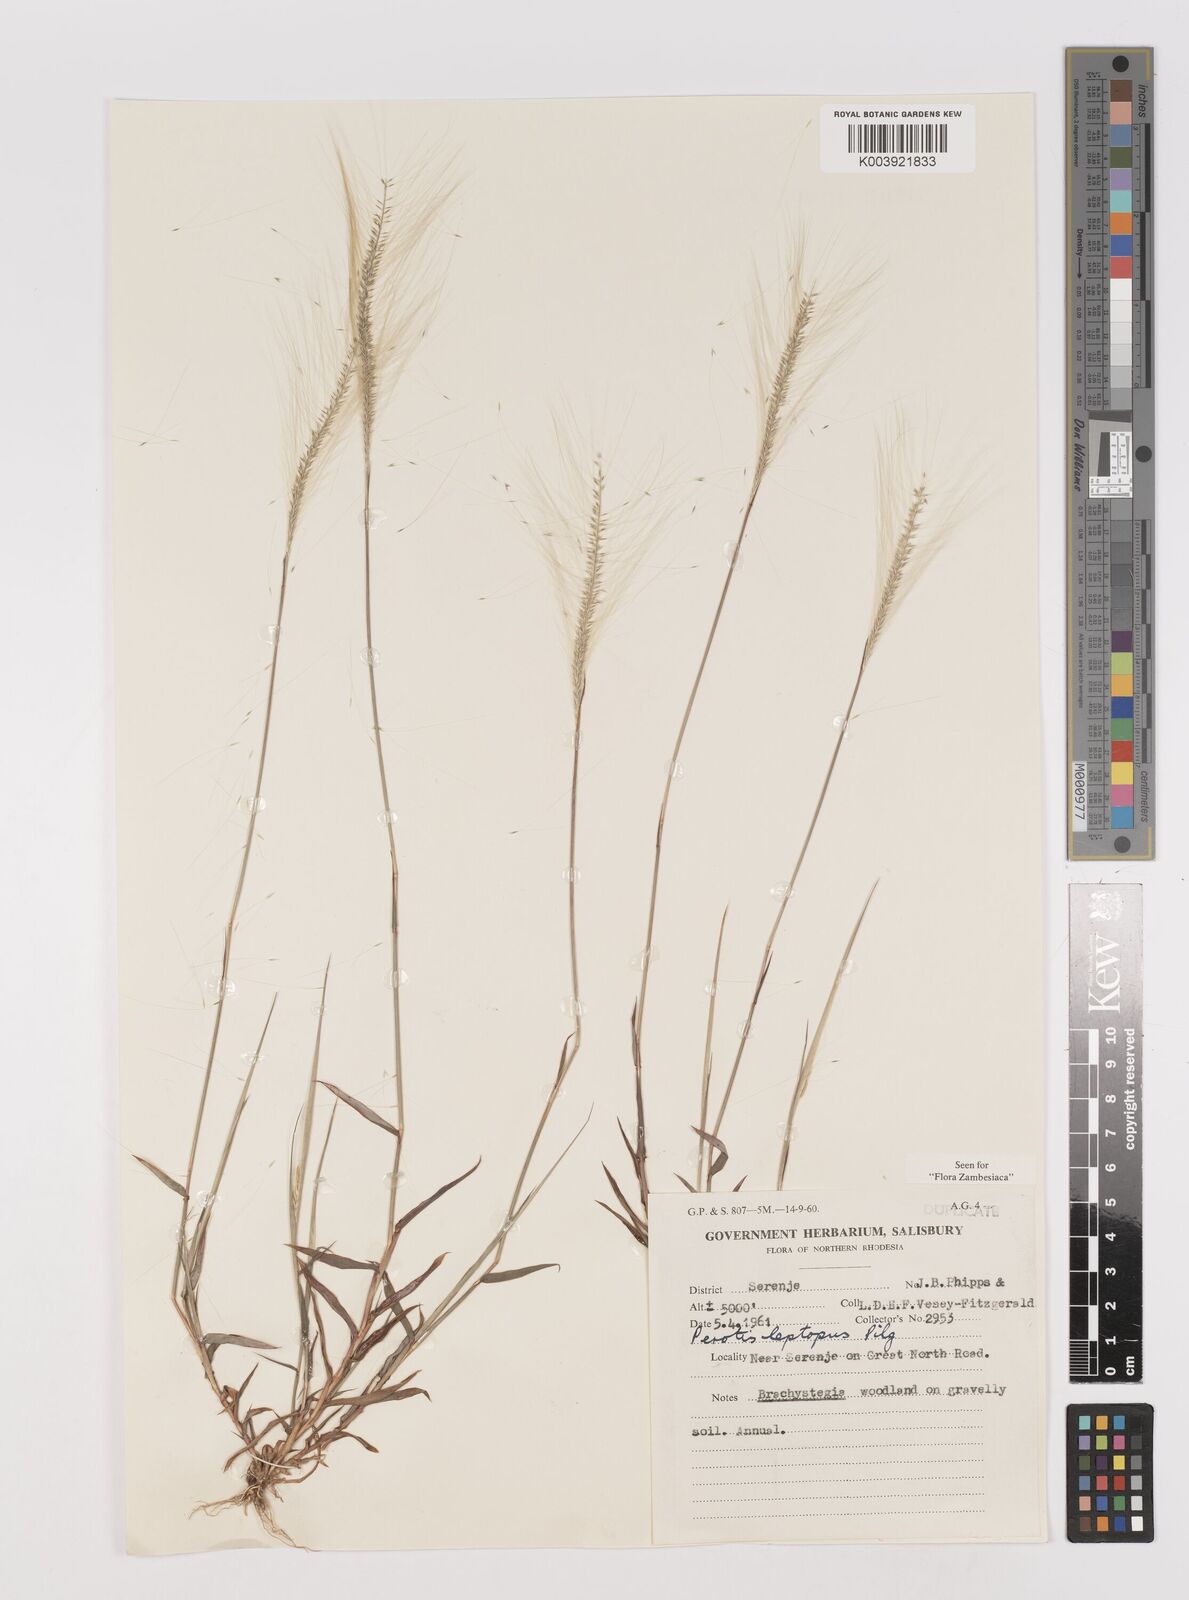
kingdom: Plantae
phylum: Tracheophyta
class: Liliopsida
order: Poales
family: Poaceae
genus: Perotis
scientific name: Perotis leptopus
